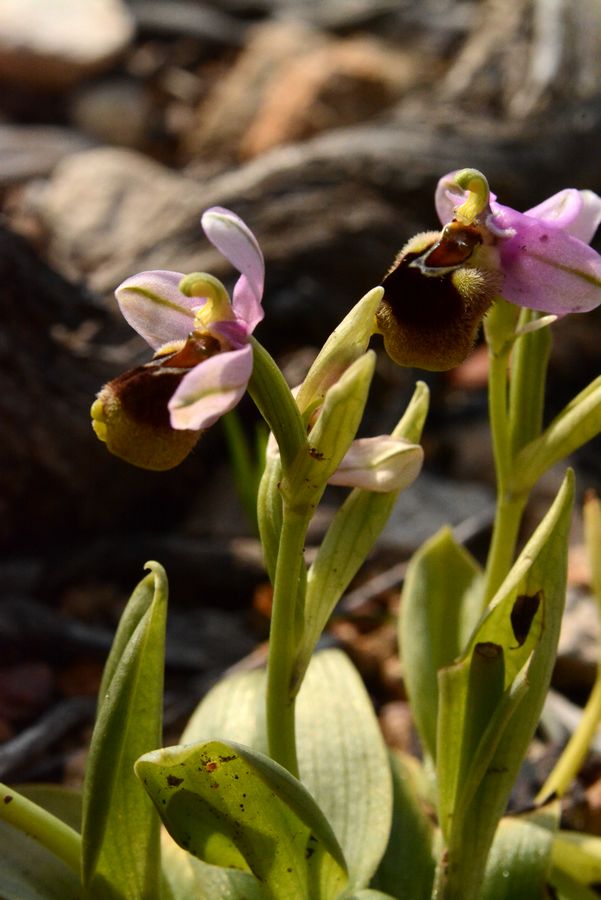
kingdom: Plantae
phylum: Tracheophyta
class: Liliopsida
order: Asparagales
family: Orchidaceae
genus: Ophrys
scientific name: Ophrys tenthredinifera
